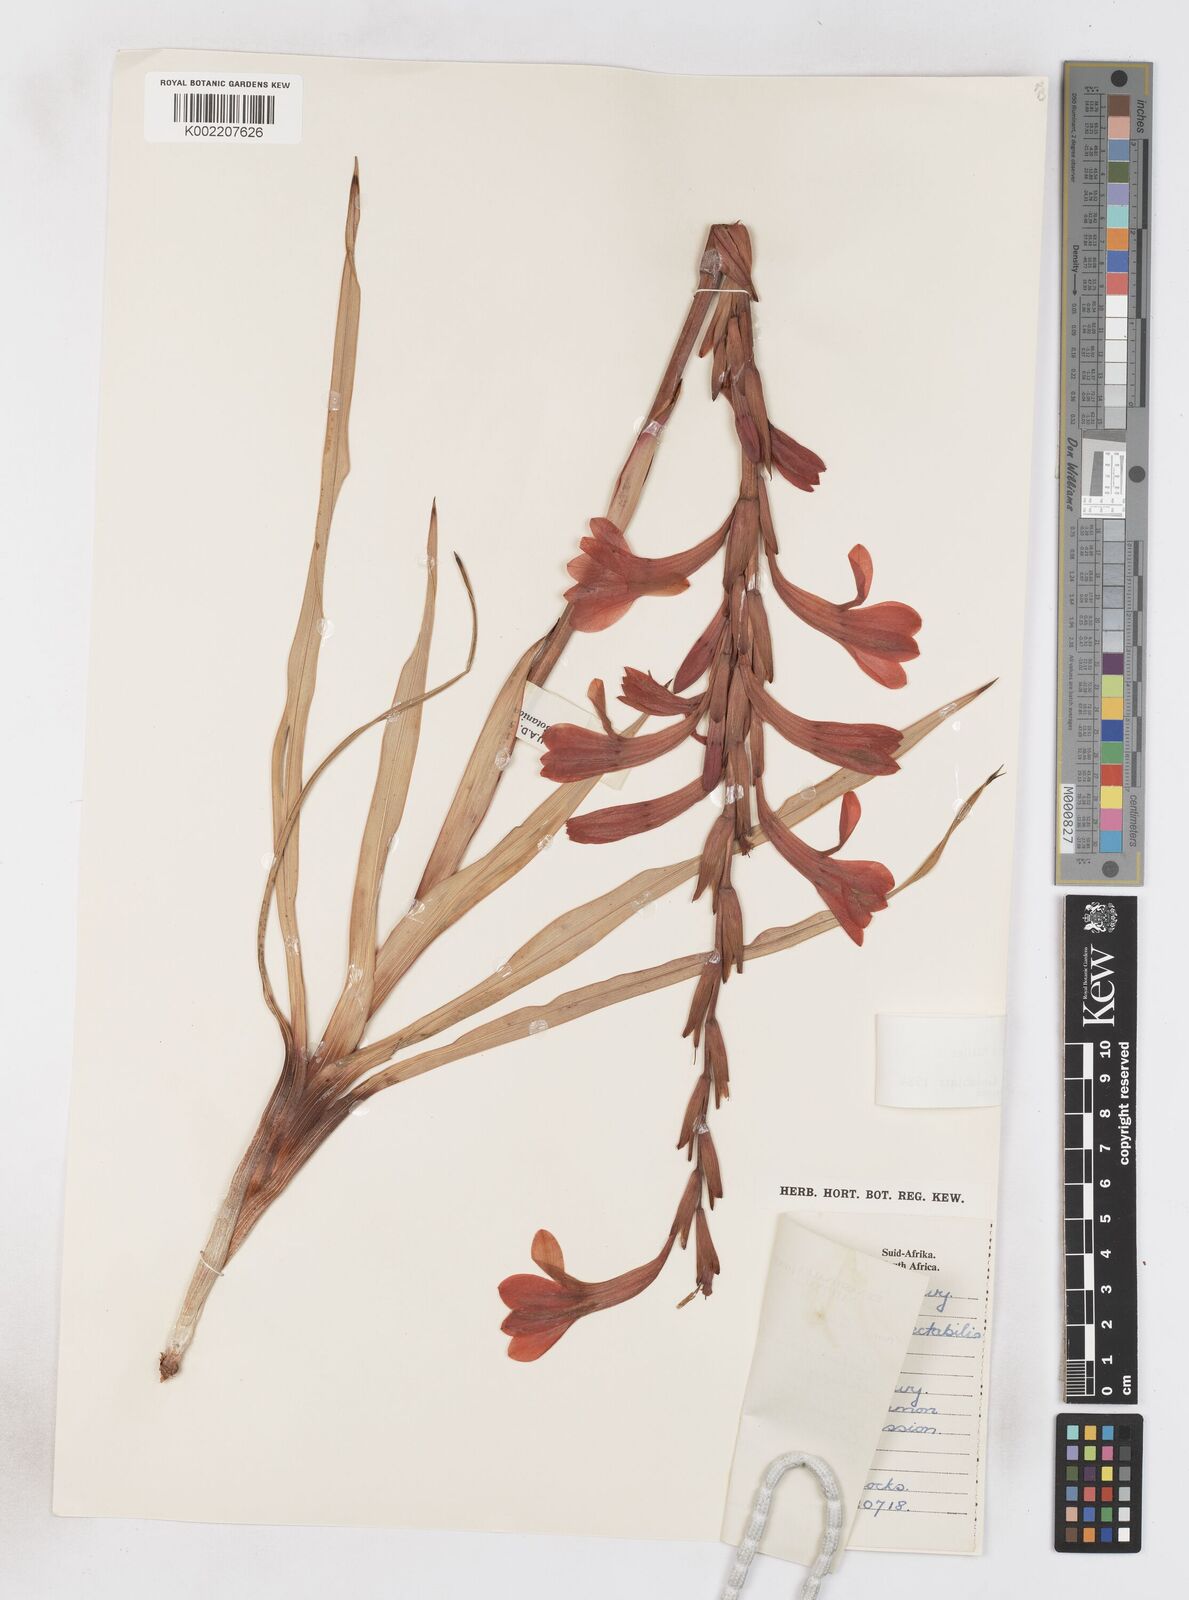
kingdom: Plantae
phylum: Tracheophyta
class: Liliopsida
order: Asparagales
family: Iridaceae
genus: Watsonia
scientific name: Watsonia meriana
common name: Bulbil bugle-lily
